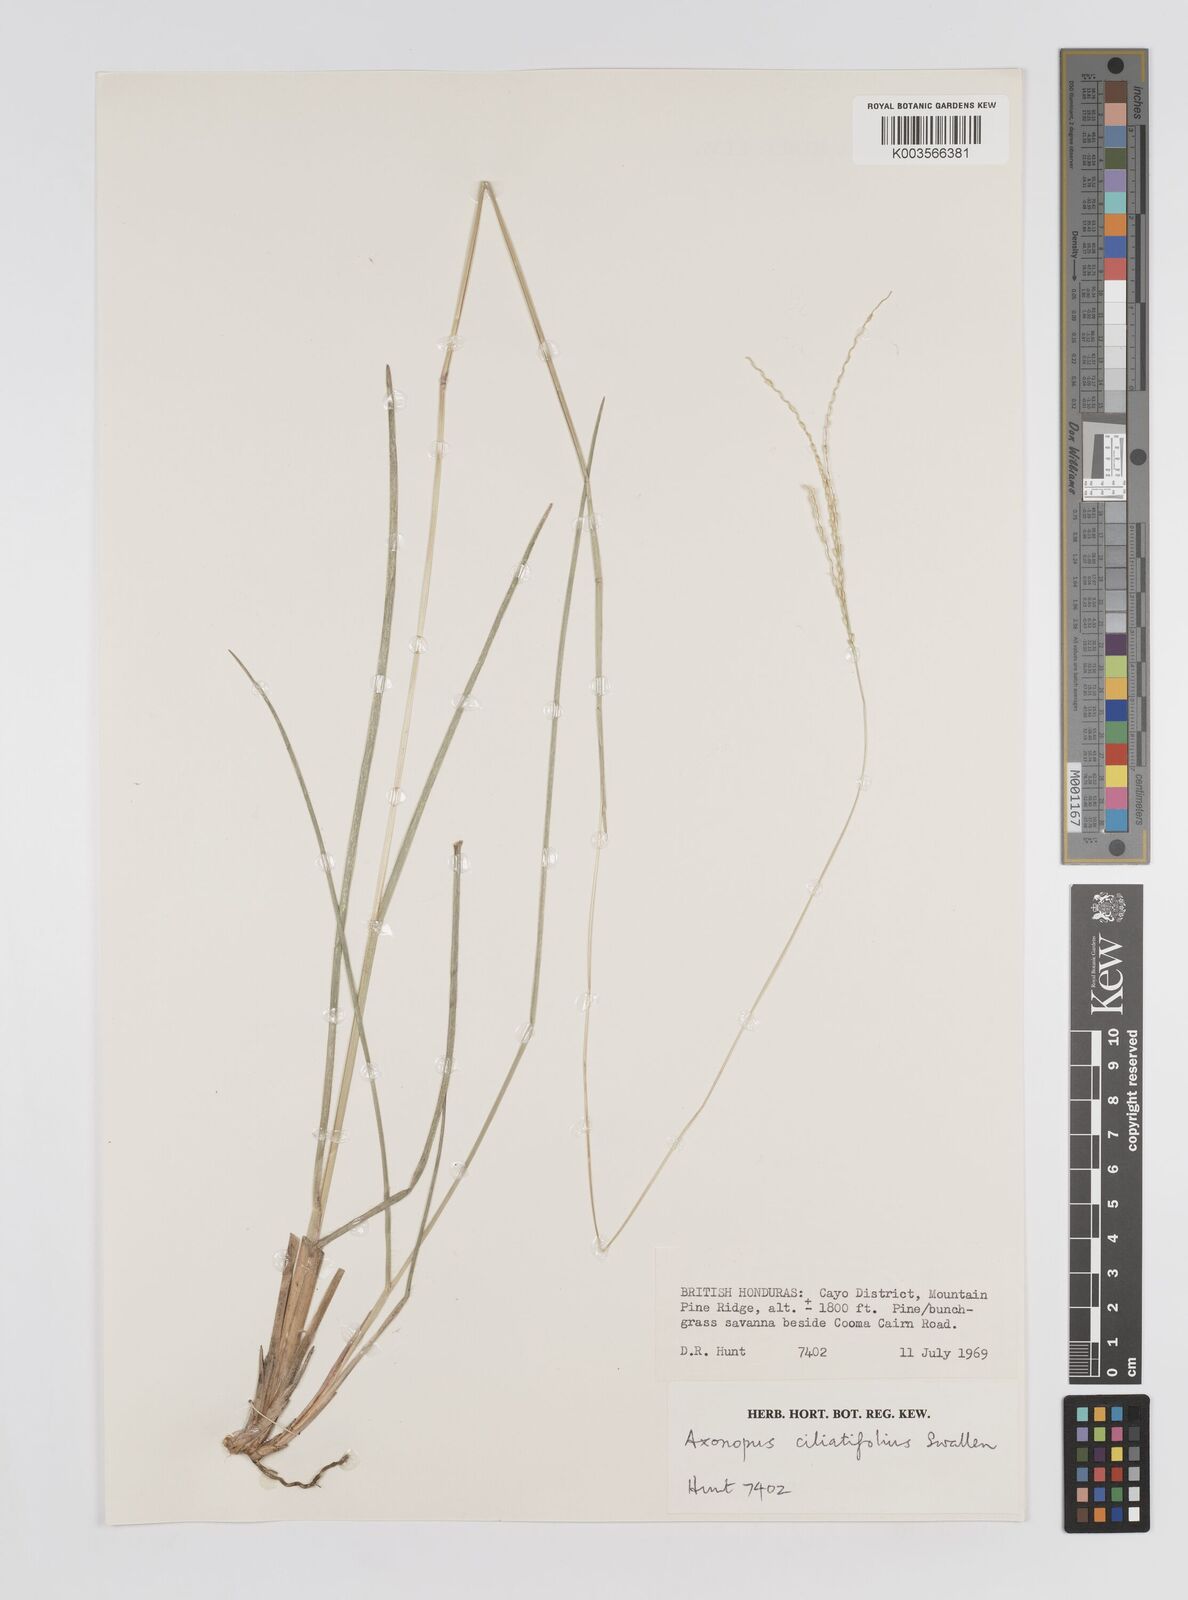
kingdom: Plantae
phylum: Tracheophyta
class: Liliopsida
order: Poales
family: Poaceae
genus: Axonopus
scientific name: Axonopus ciliatifolius
